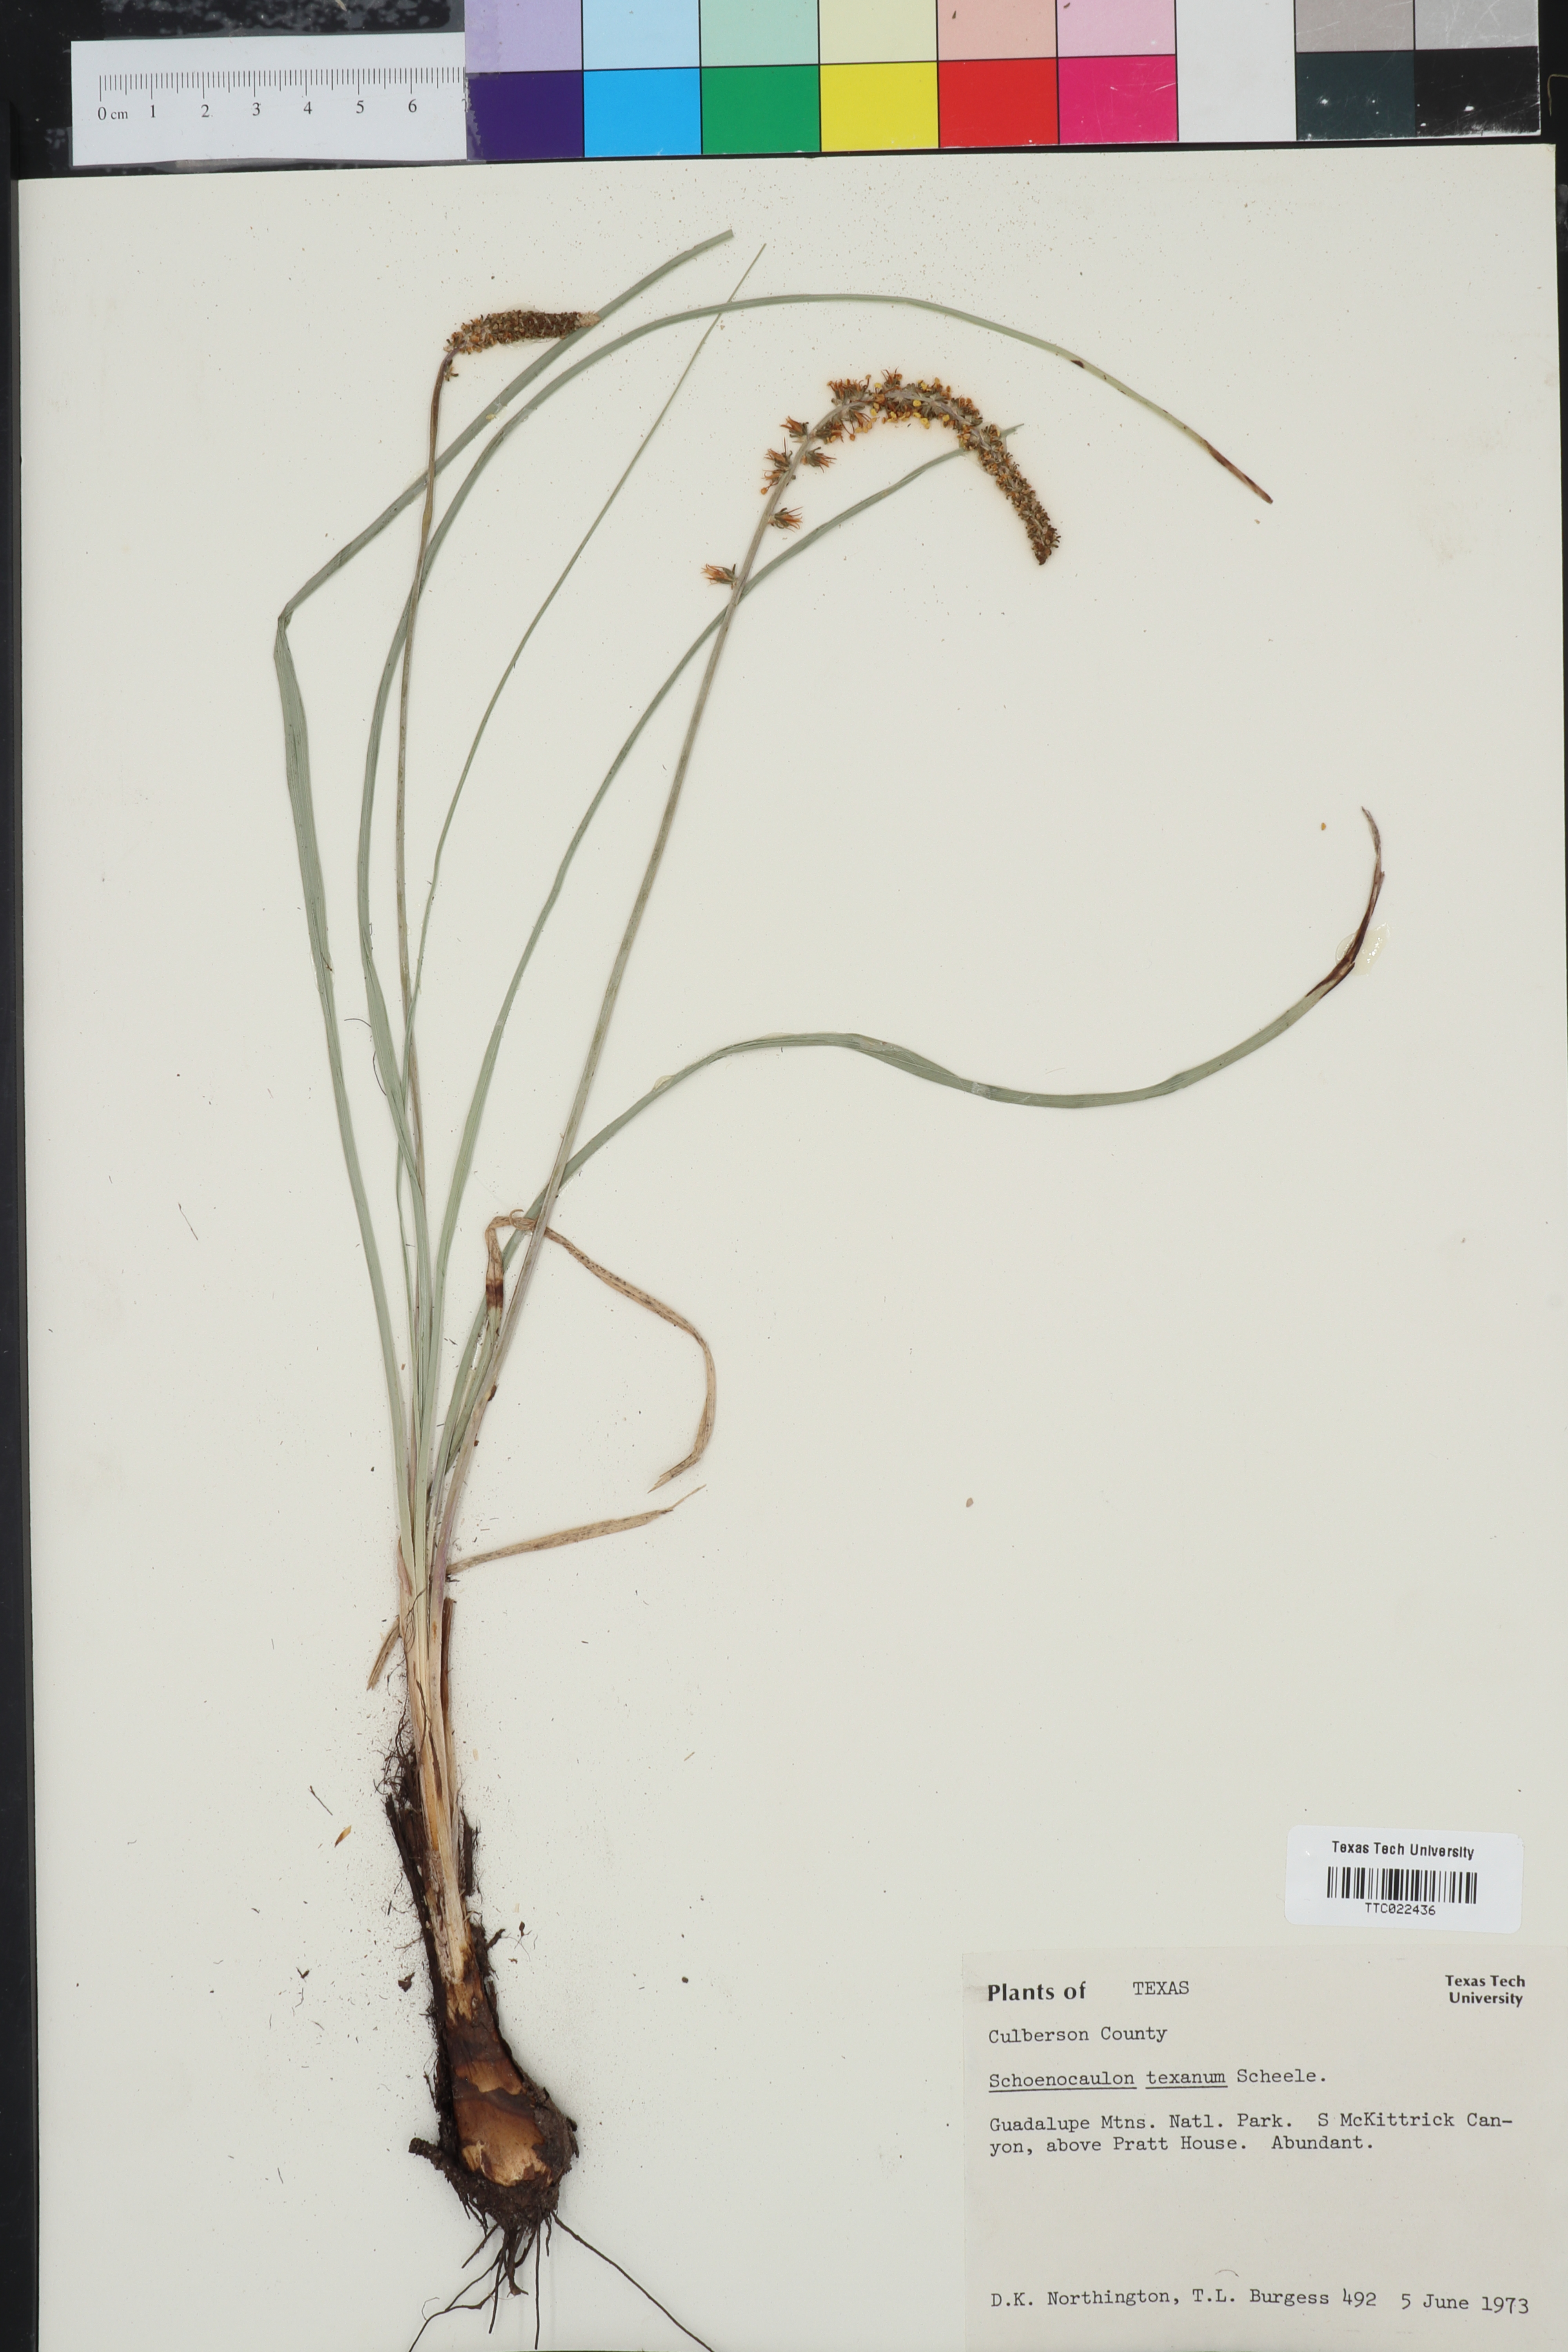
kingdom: Plantae
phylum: Tracheophyta
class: Liliopsida
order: Liliales
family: Melanthiaceae
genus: Schoenocaulon
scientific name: Schoenocaulon texanum
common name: Texas feather-shank
